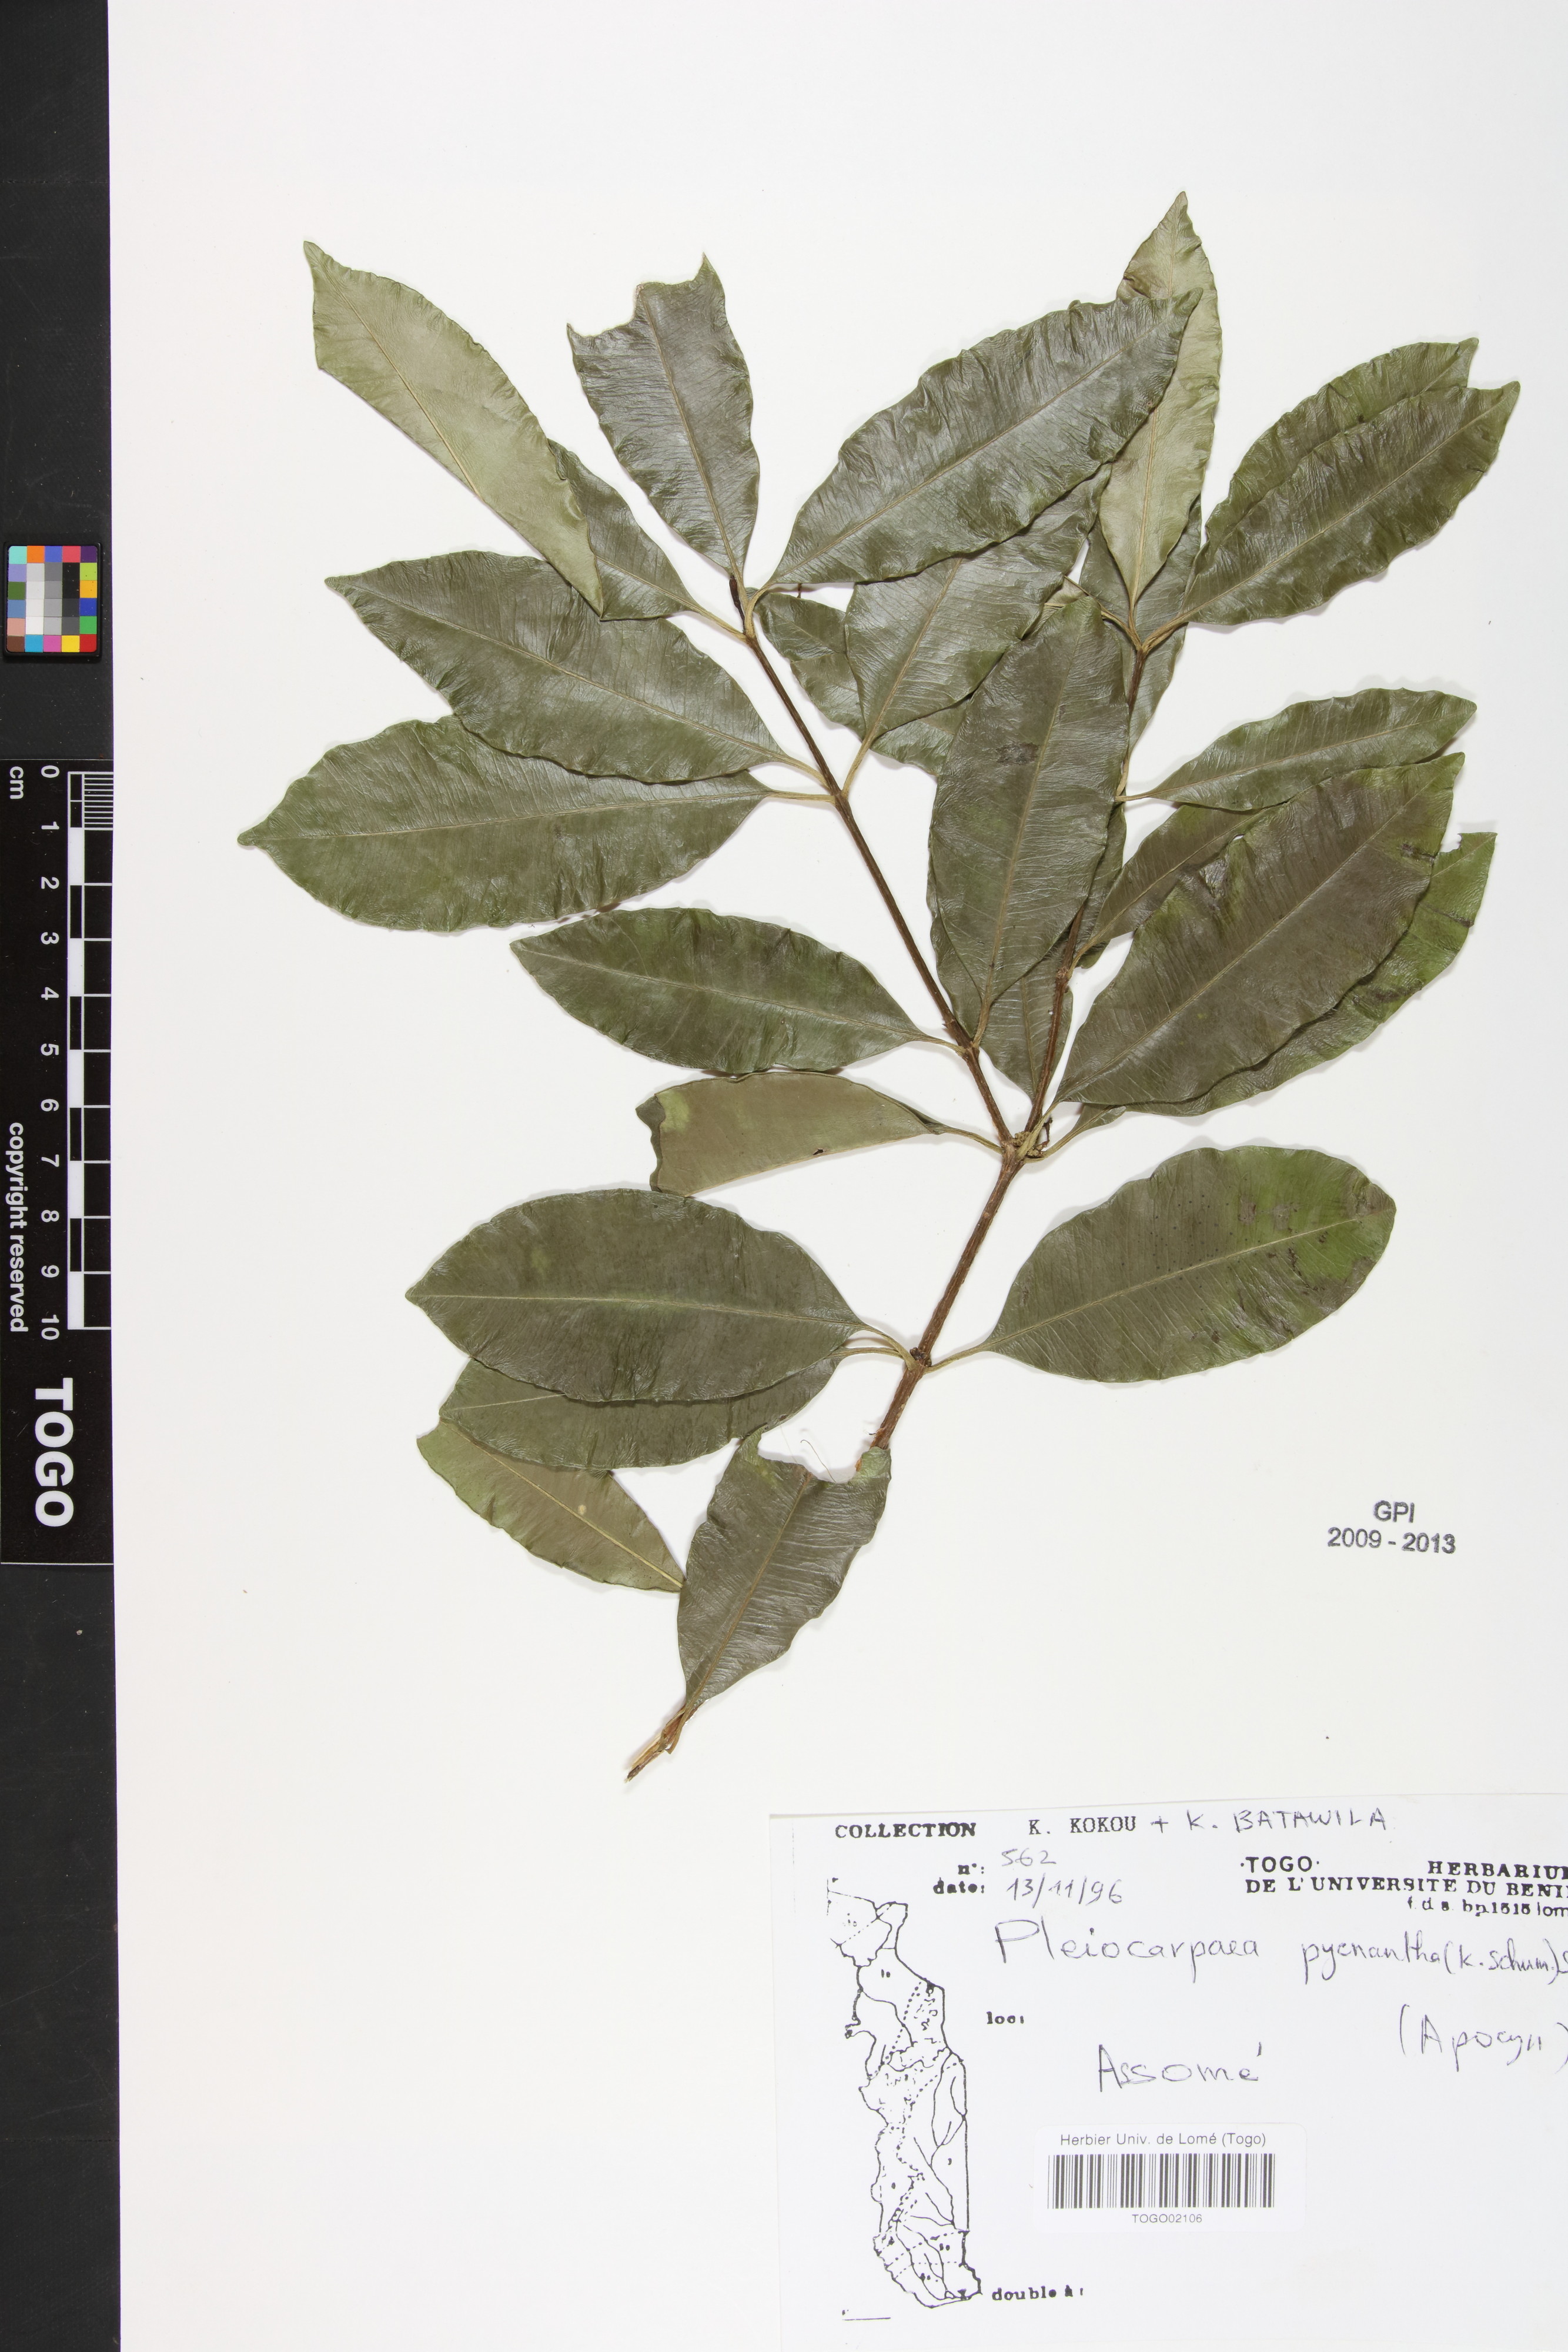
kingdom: Plantae
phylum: Tracheophyta
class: Magnoliopsida
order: Gentianales
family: Apocynaceae
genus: Pleiocarpa
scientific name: Pleiocarpa pycnantha
